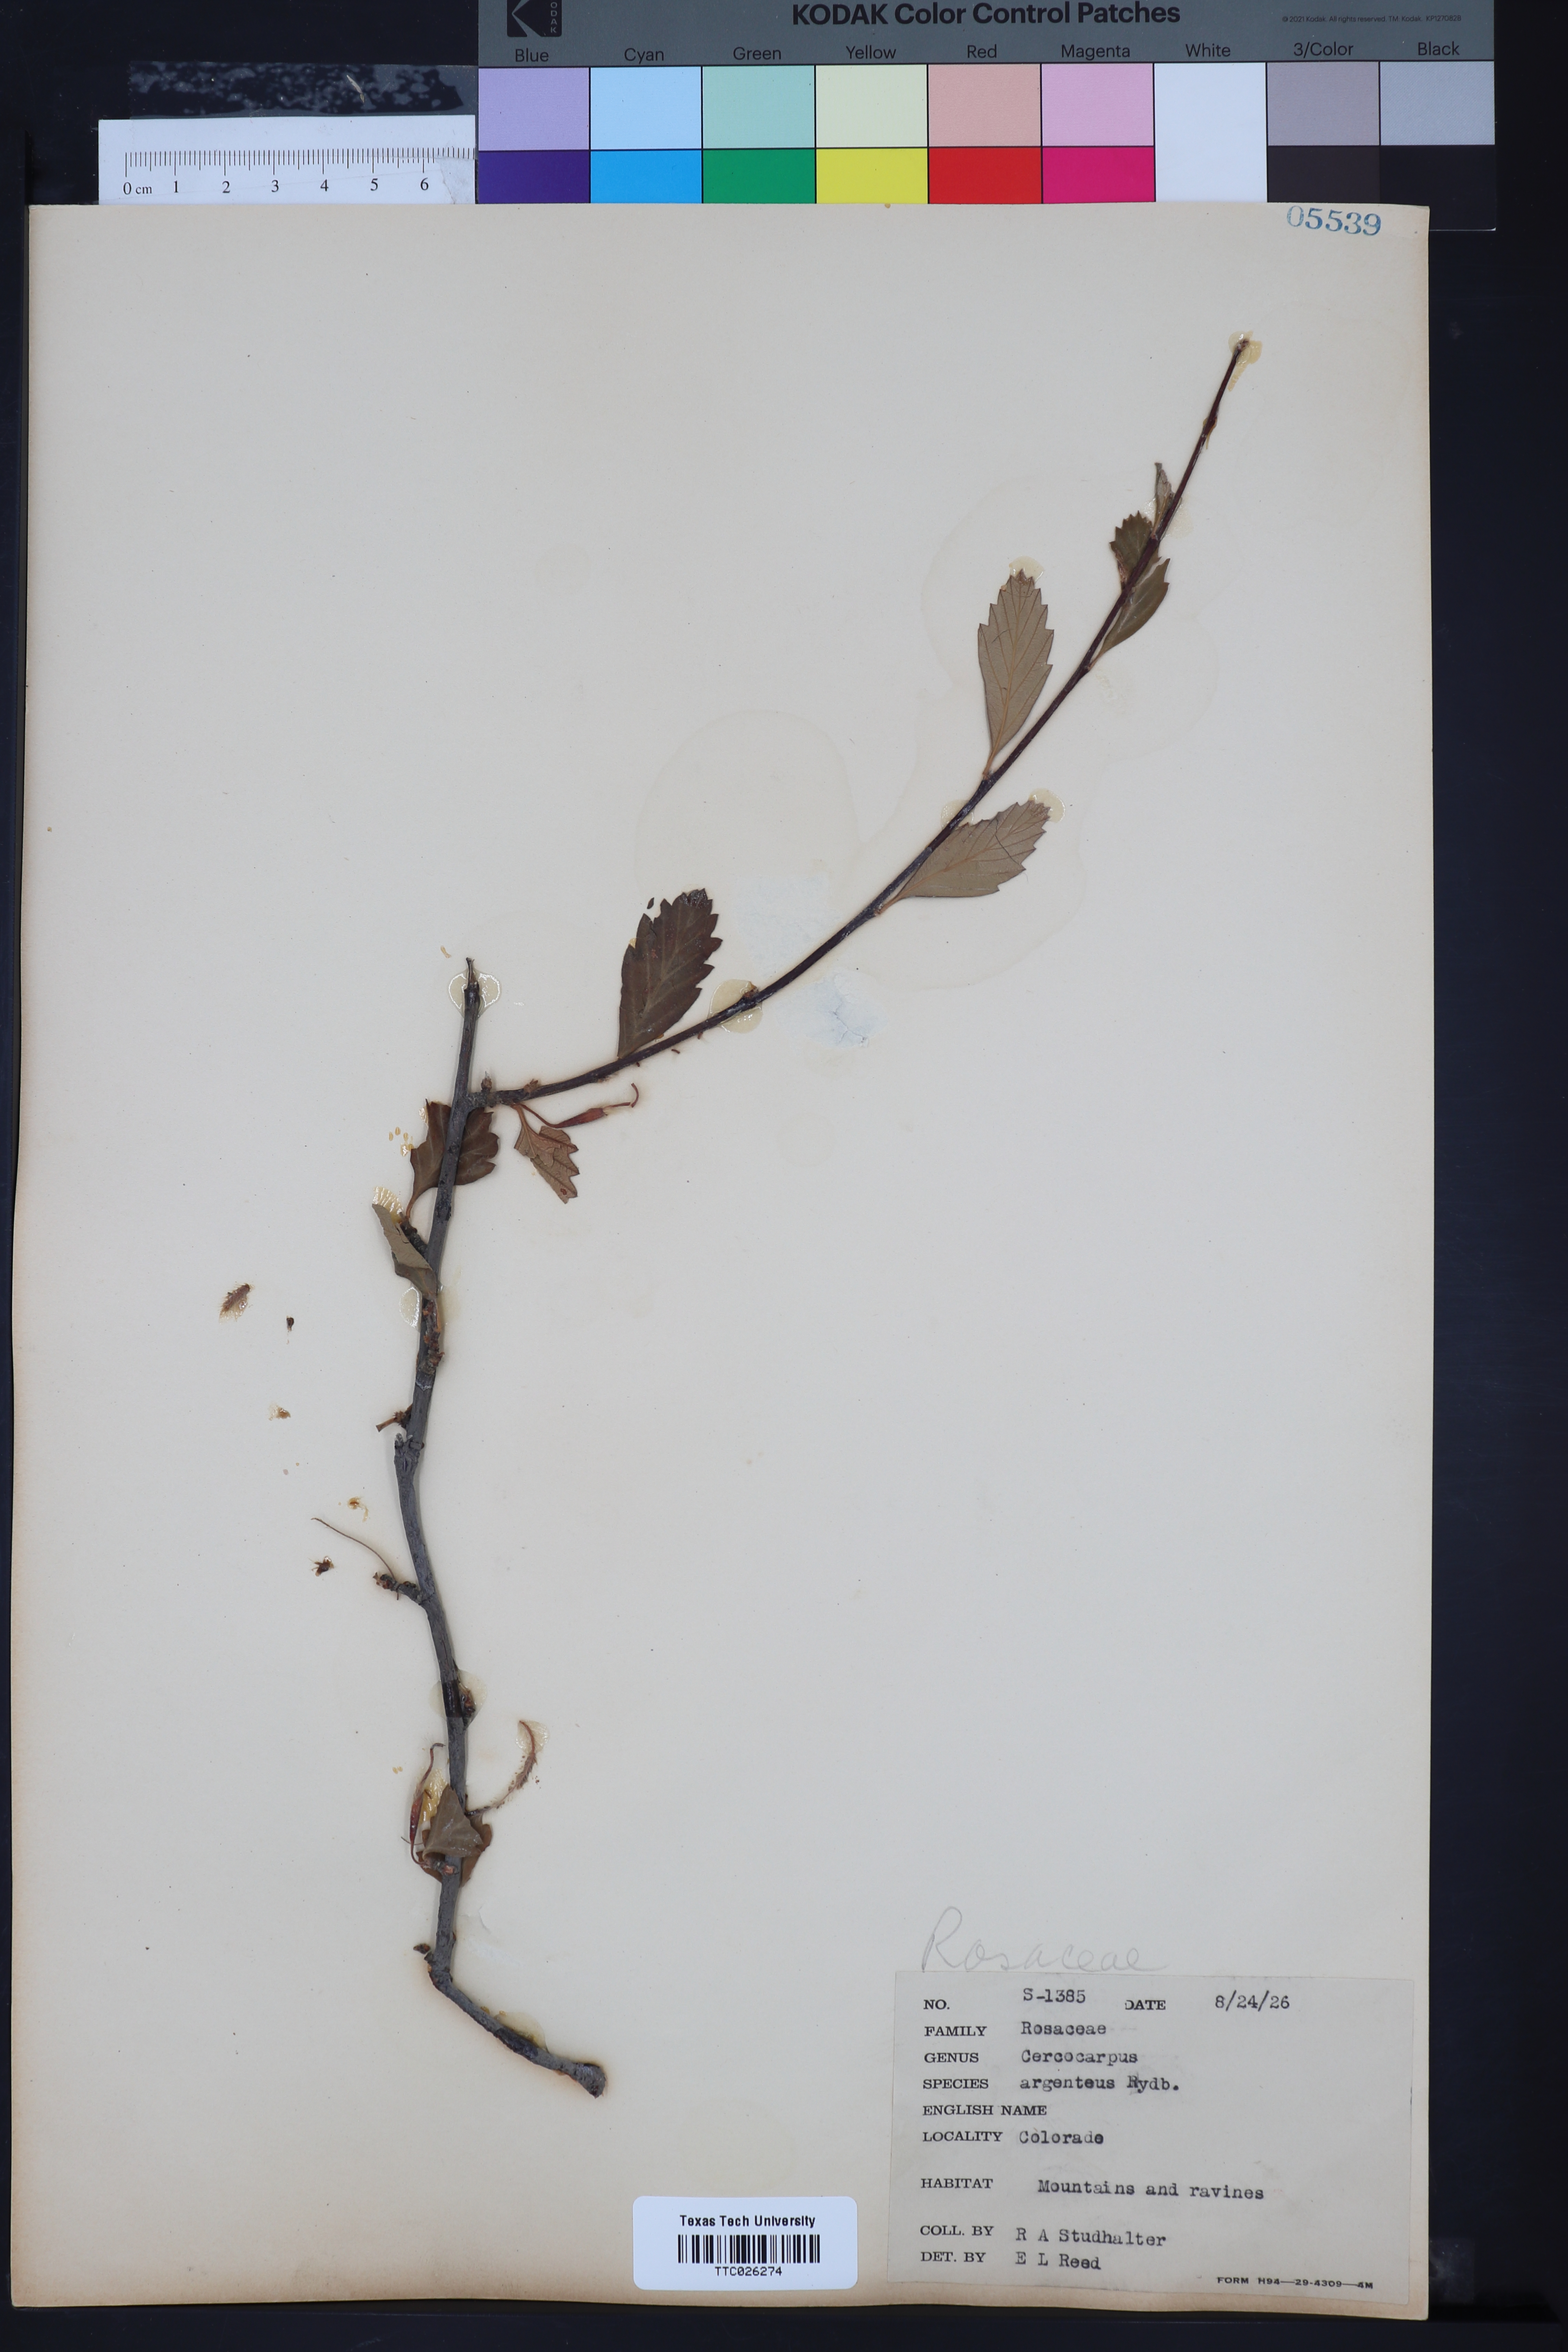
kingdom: Plantae
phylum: Tracheophyta
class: Magnoliopsida
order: Rosales
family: Rosaceae
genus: Cercocarpus
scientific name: Cercocarpus intricatus
